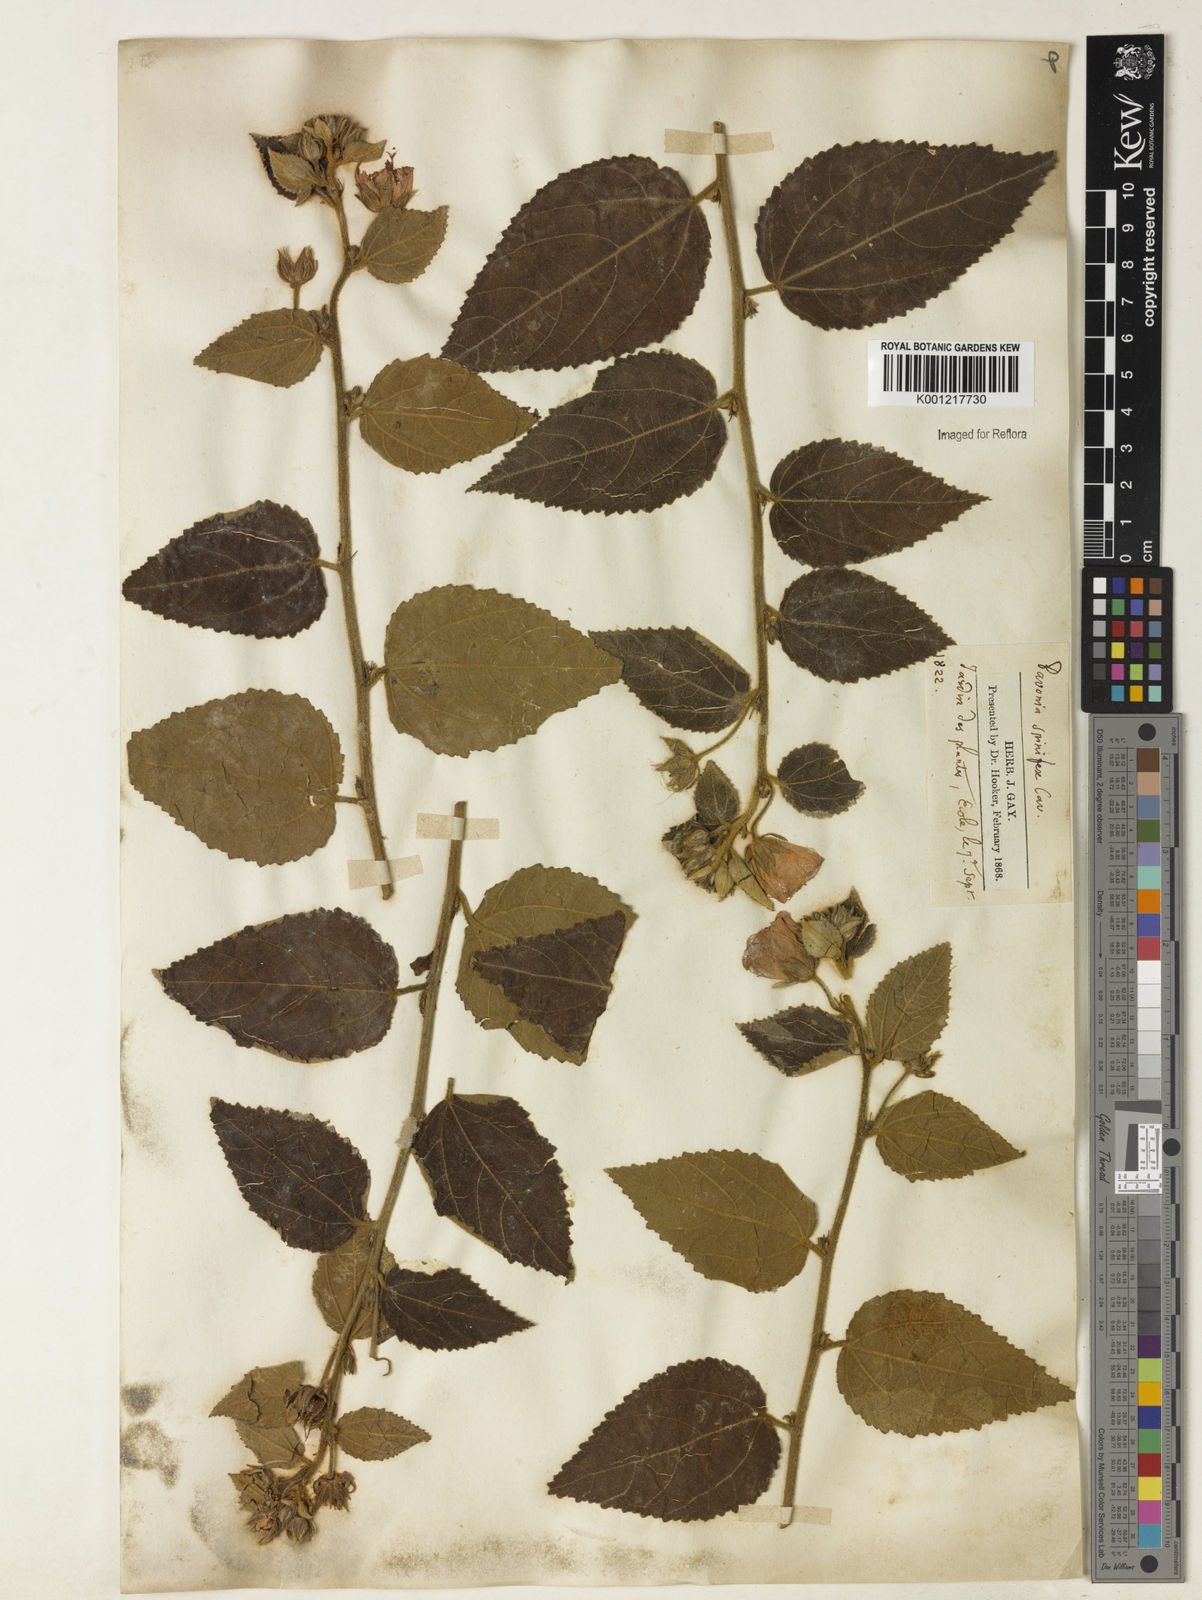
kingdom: Plantae
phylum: Tracheophyta
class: Magnoliopsida
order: Malvales
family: Malvaceae
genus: Pavonia
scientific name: Pavonia spinifex
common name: Ginger bush
